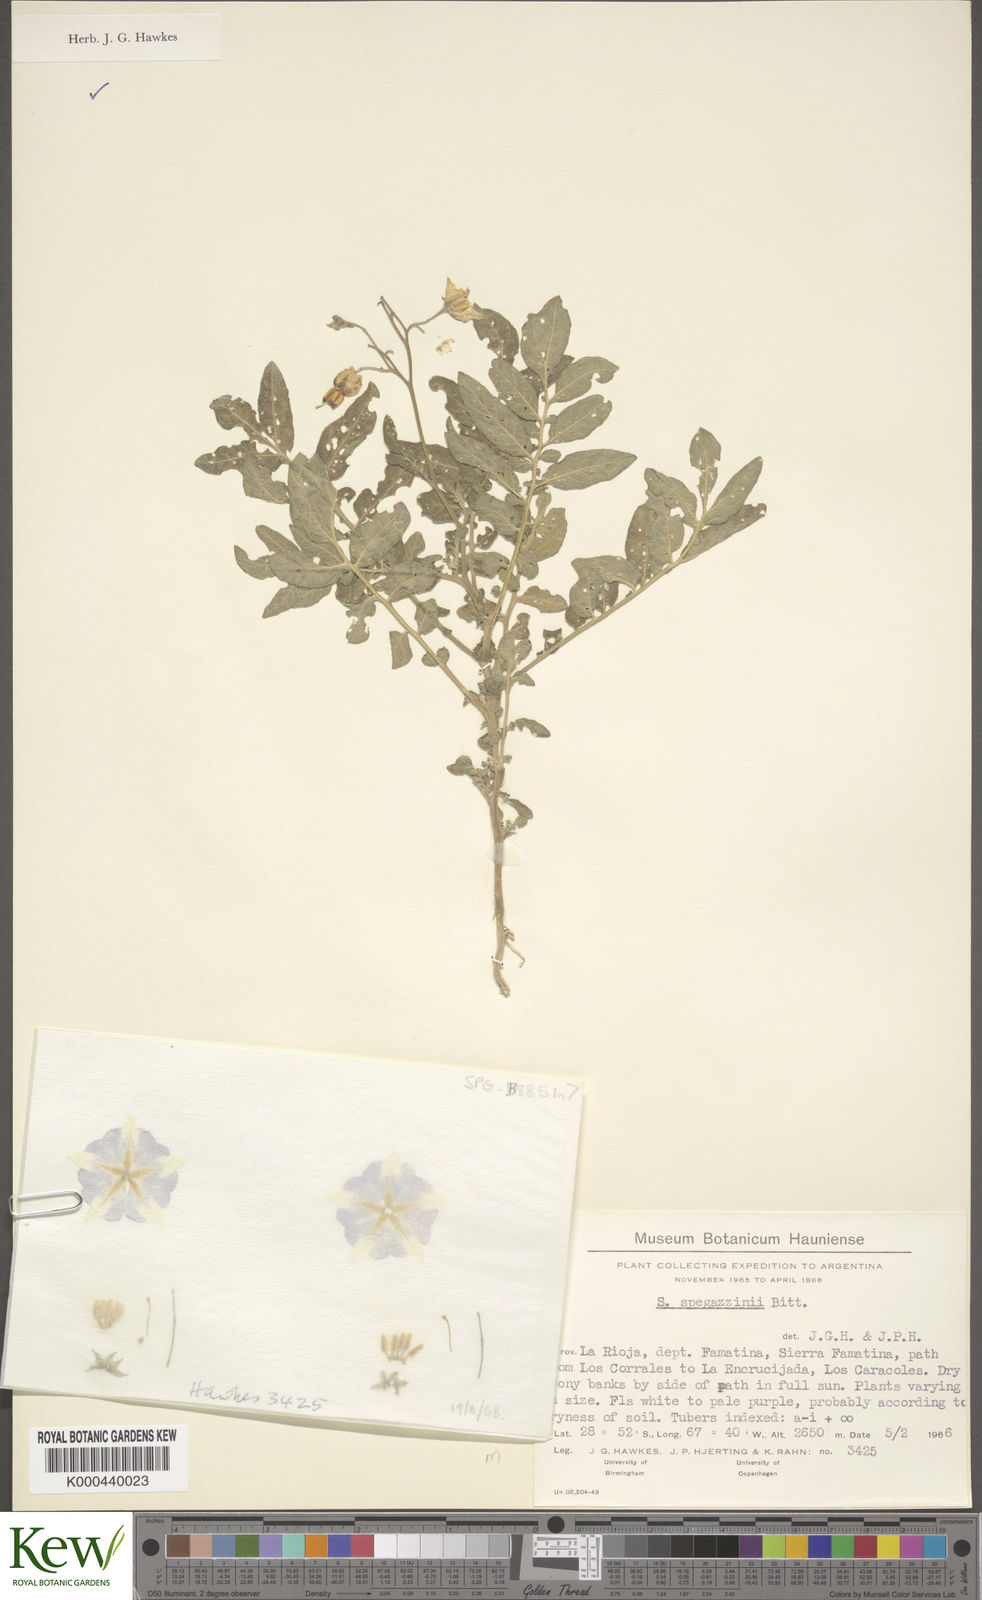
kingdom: Plantae
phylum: Tracheophyta
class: Magnoliopsida
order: Solanales
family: Solanaceae
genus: Solanum
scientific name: Solanum brevicaule
